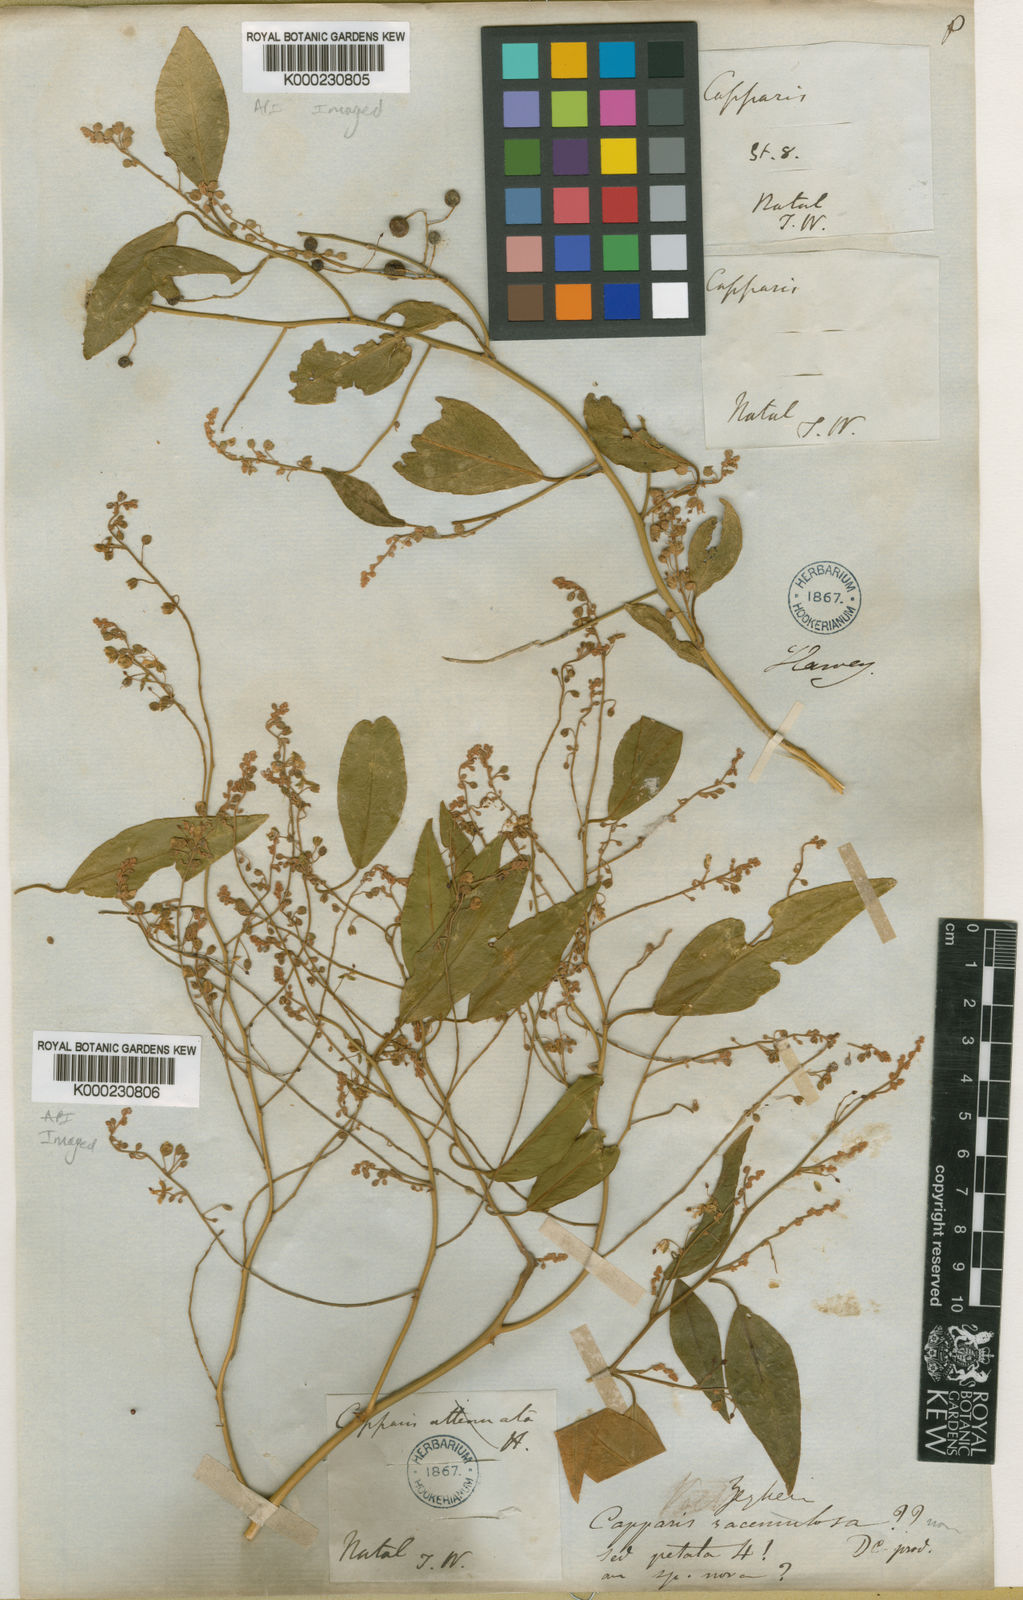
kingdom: Plantae
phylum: Tracheophyta
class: Magnoliopsida
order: Brassicales
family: Capparaceae
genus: Capparis
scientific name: Capparis fascicularis
